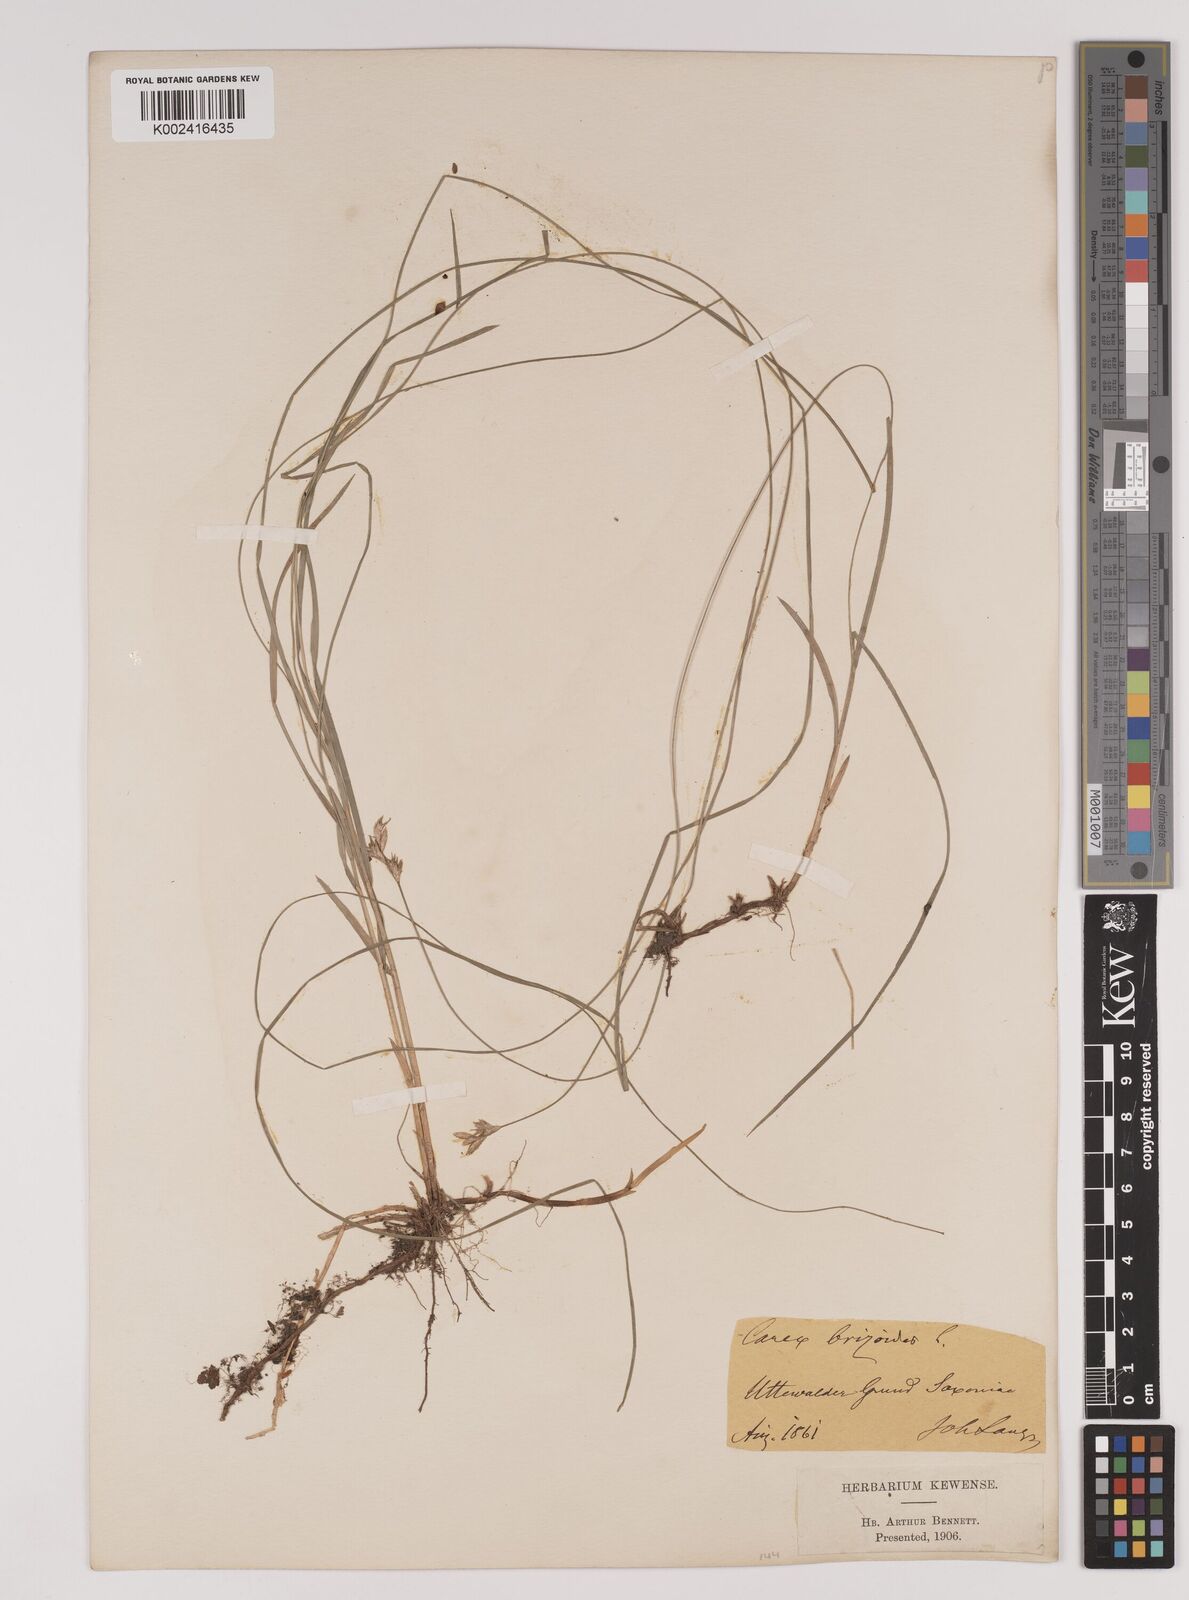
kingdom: Plantae
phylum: Tracheophyta
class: Liliopsida
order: Poales
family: Cyperaceae
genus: Carex
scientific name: Carex brizoides
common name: Quaking-grass sedge
